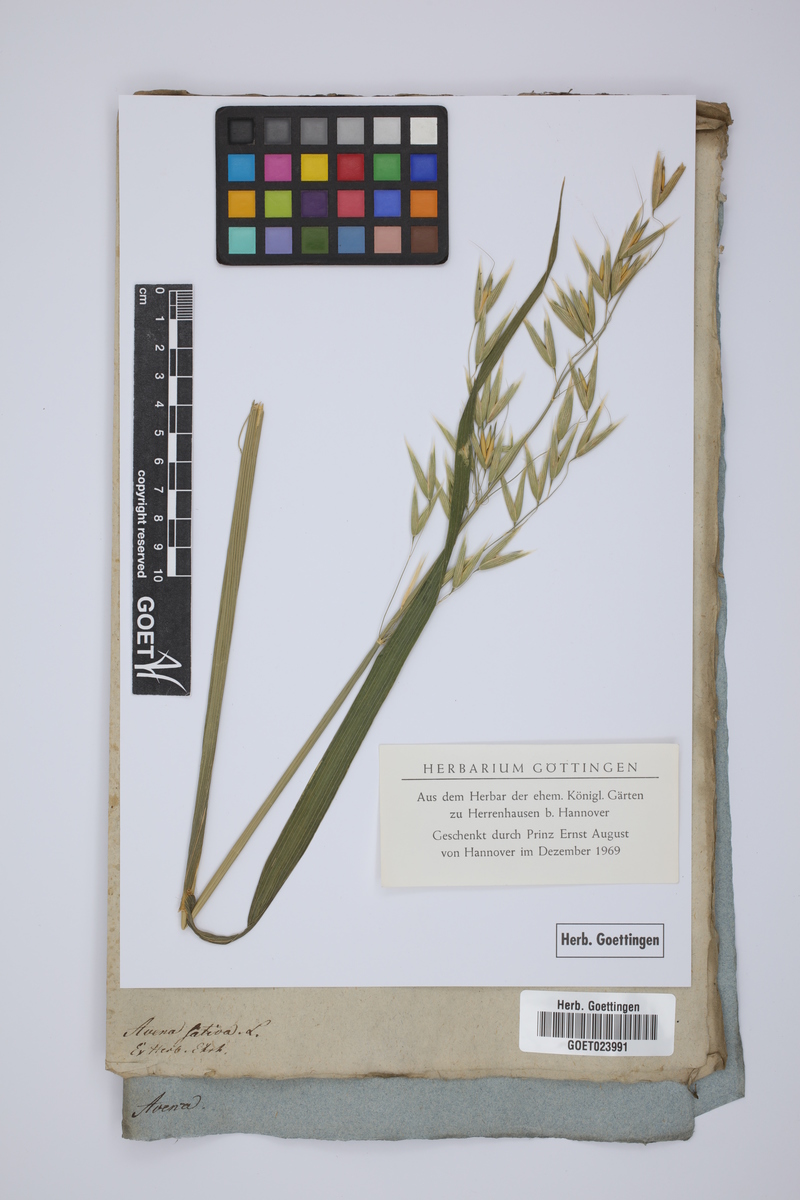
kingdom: Plantae
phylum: Tracheophyta
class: Liliopsida
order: Poales
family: Poaceae
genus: Avena
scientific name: Avena sativa
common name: Oat
